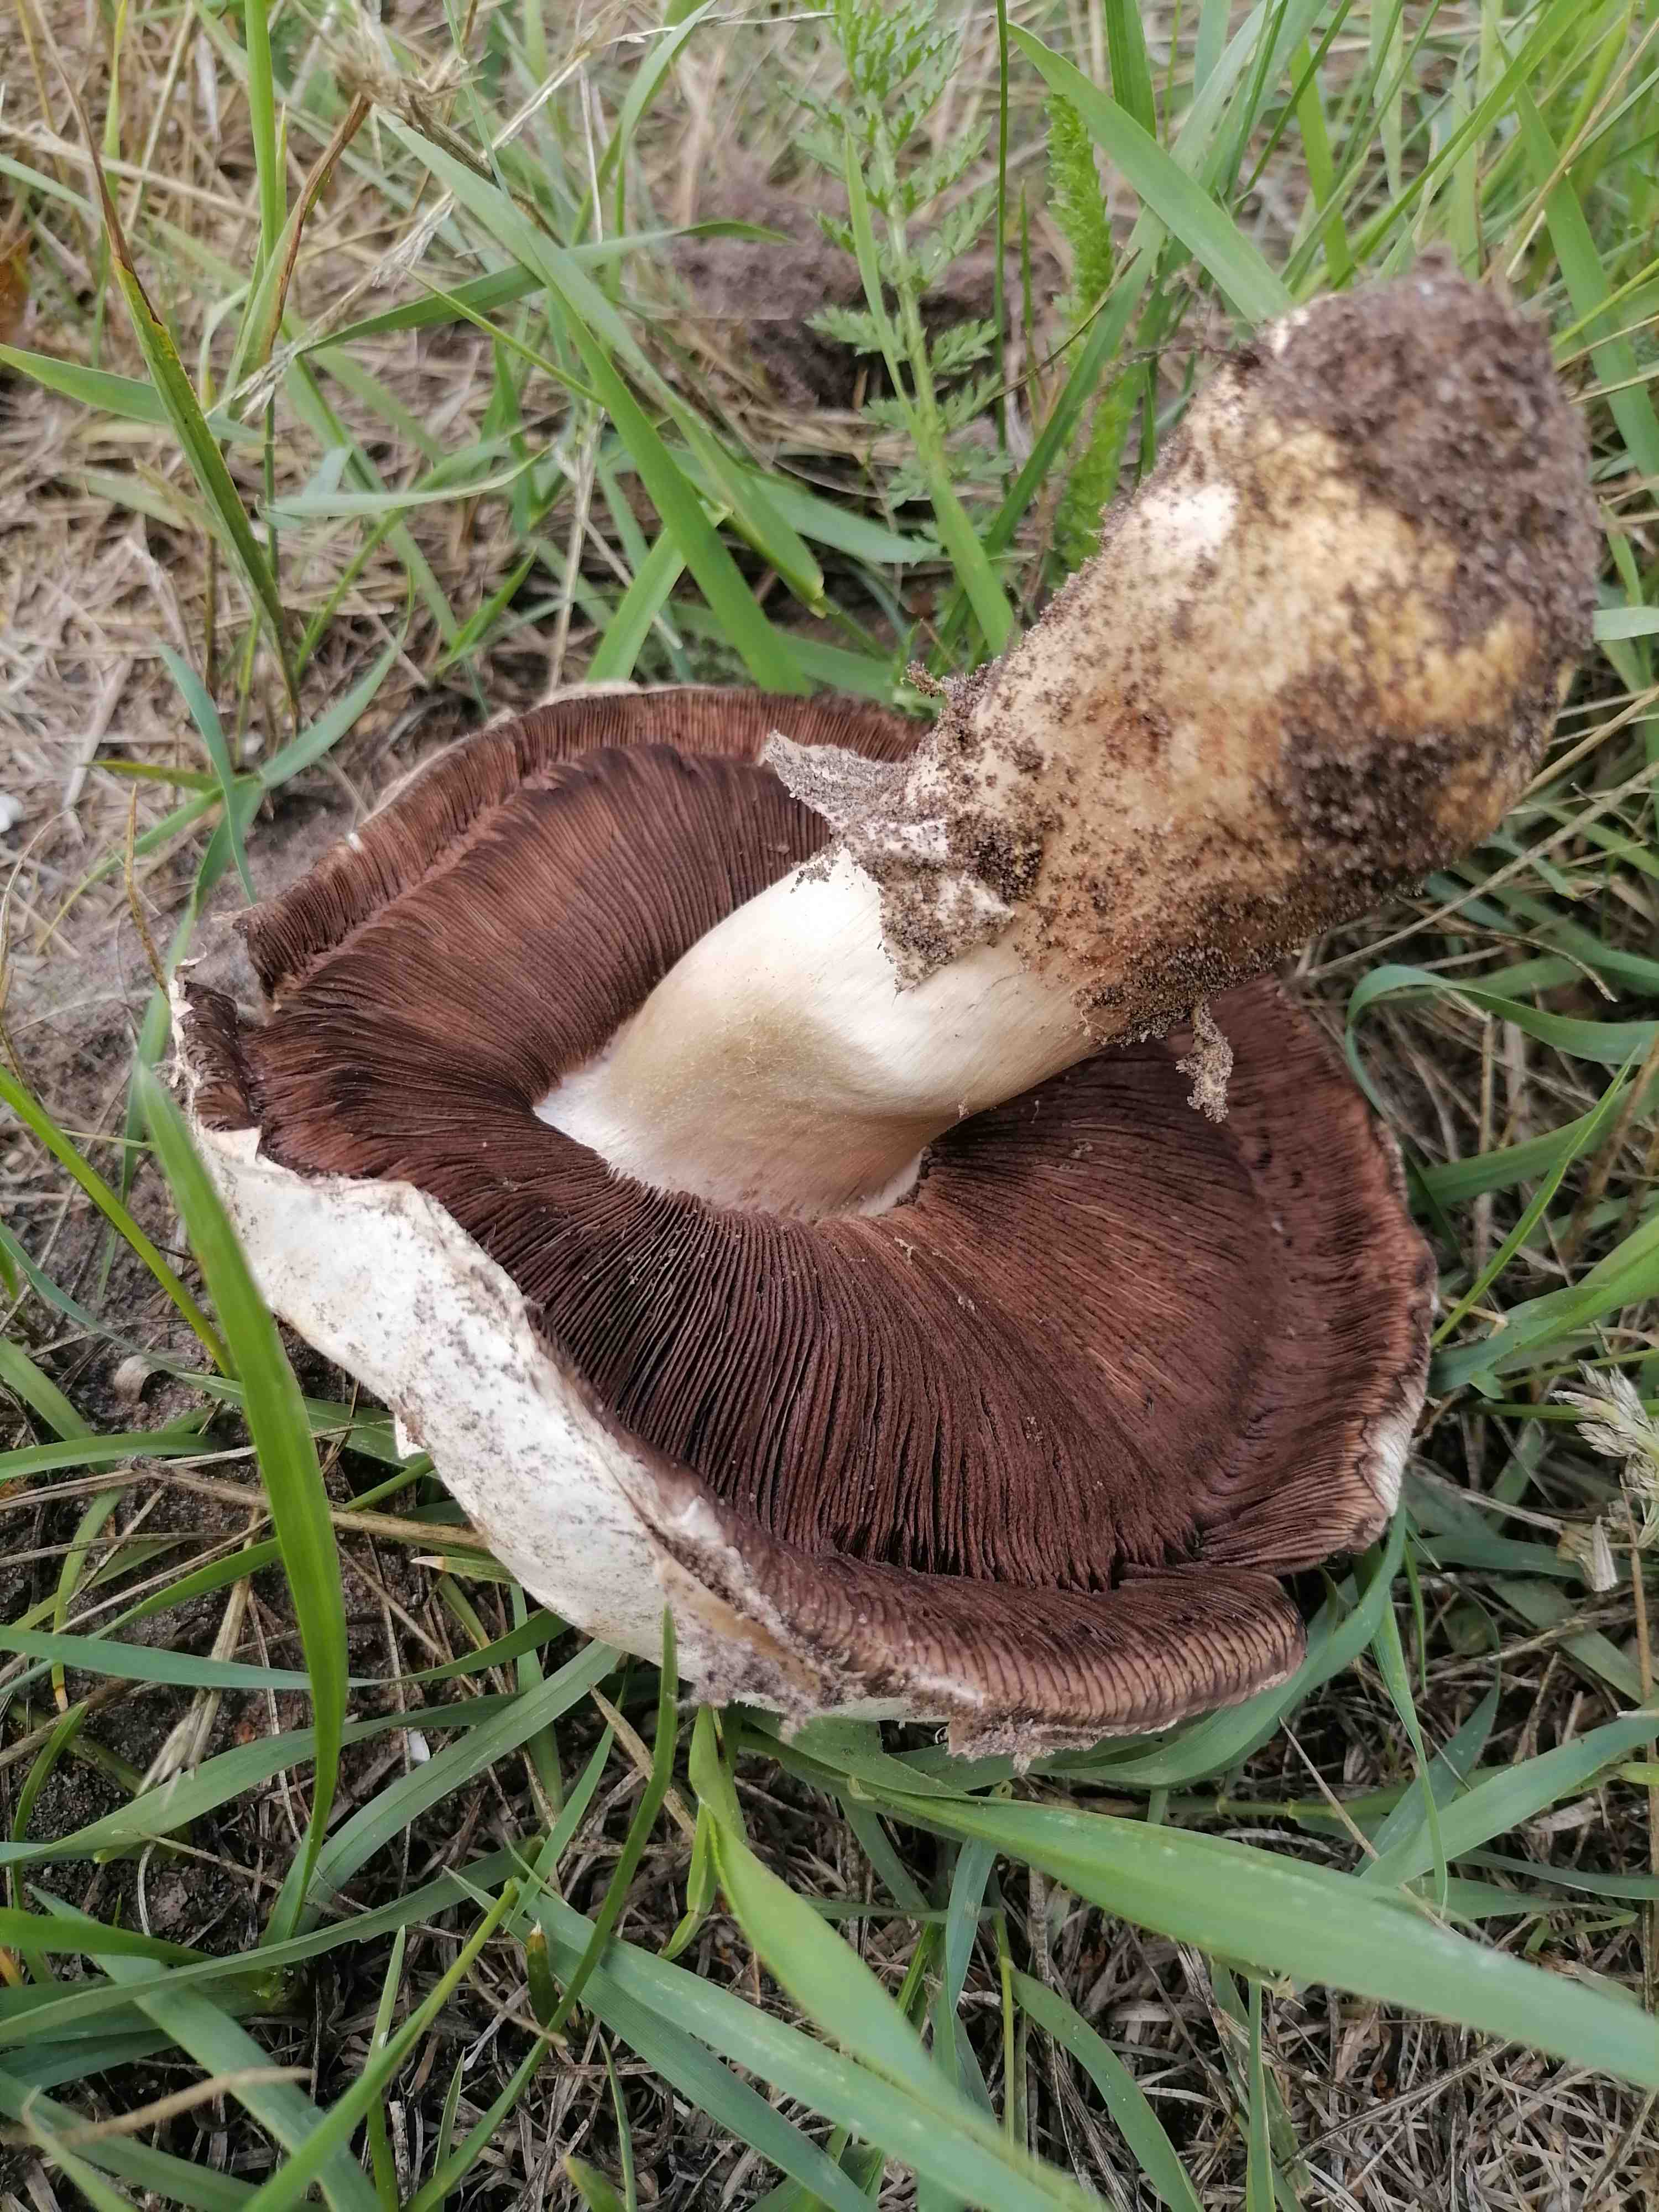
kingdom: Fungi
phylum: Basidiomycota
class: Agaricomycetes
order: Agaricales
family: Agaricaceae
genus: Agaricus
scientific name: Agaricus bitorquis
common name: vej-champignon
